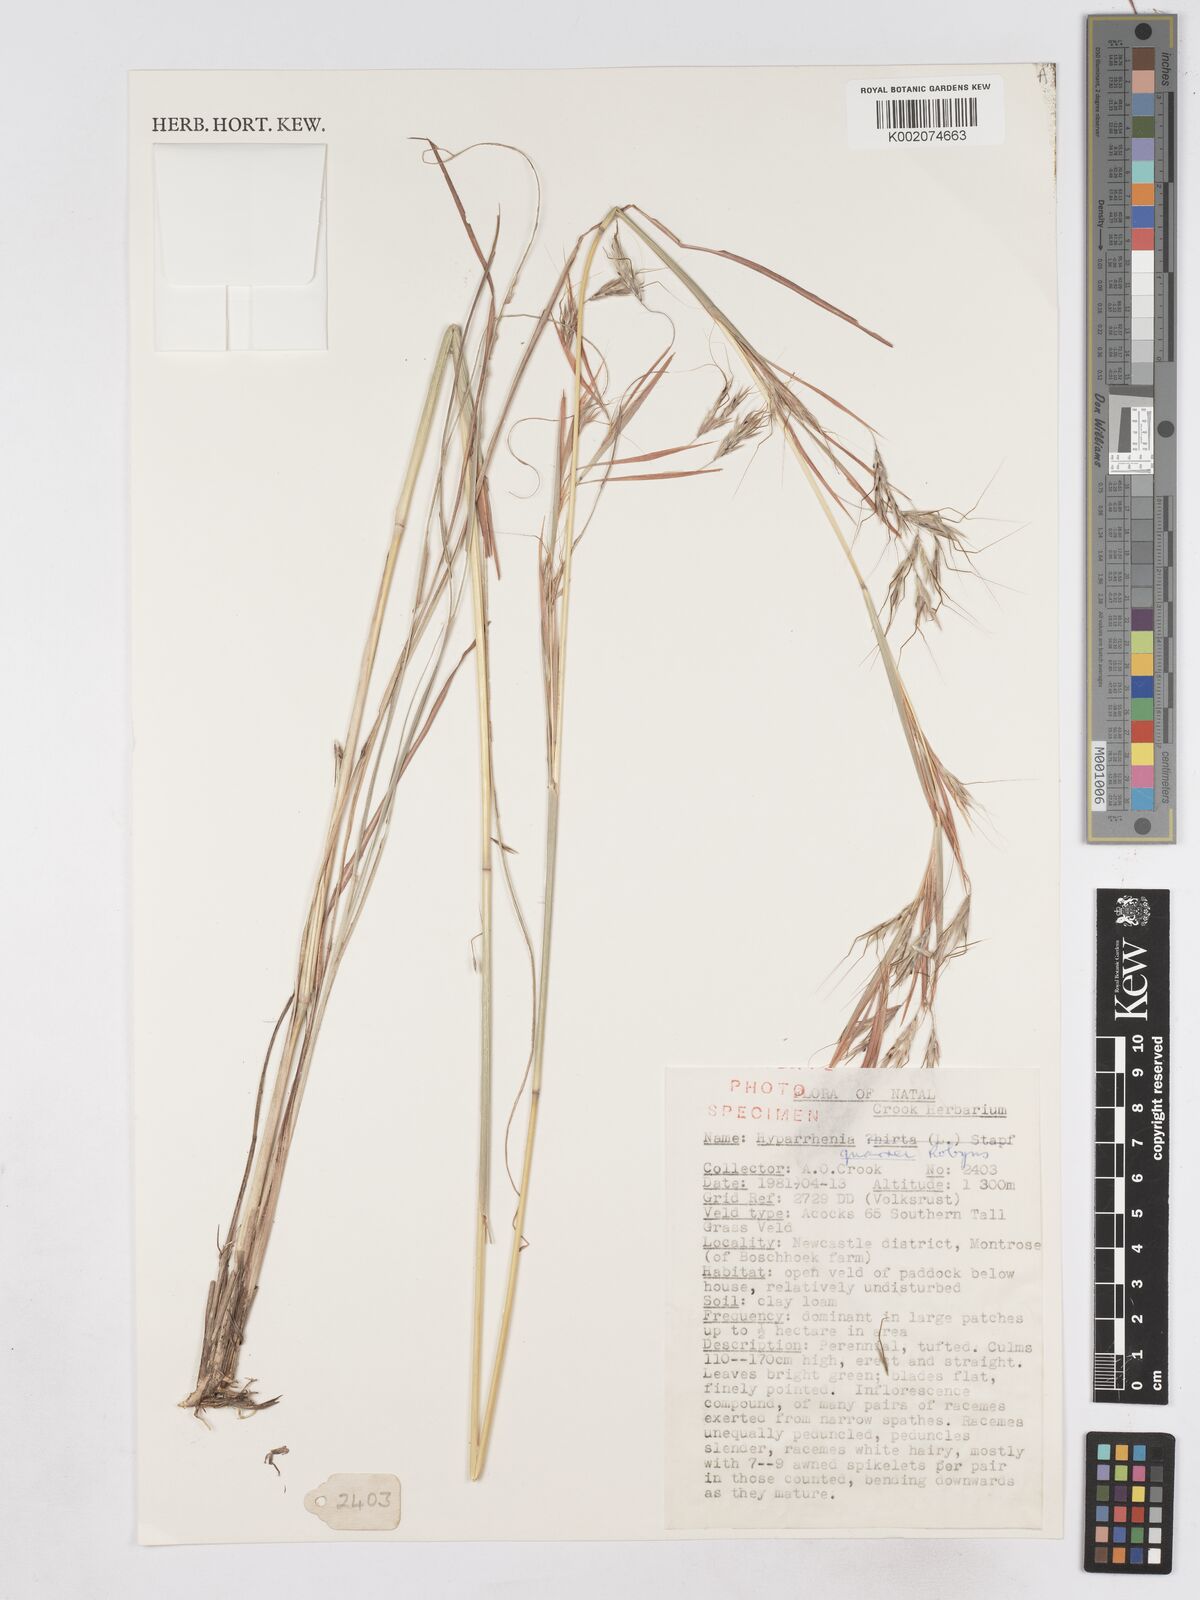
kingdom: Plantae
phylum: Tracheophyta
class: Liliopsida
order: Poales
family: Poaceae
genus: Hyparrhenia
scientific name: Hyparrhenia quarrei
